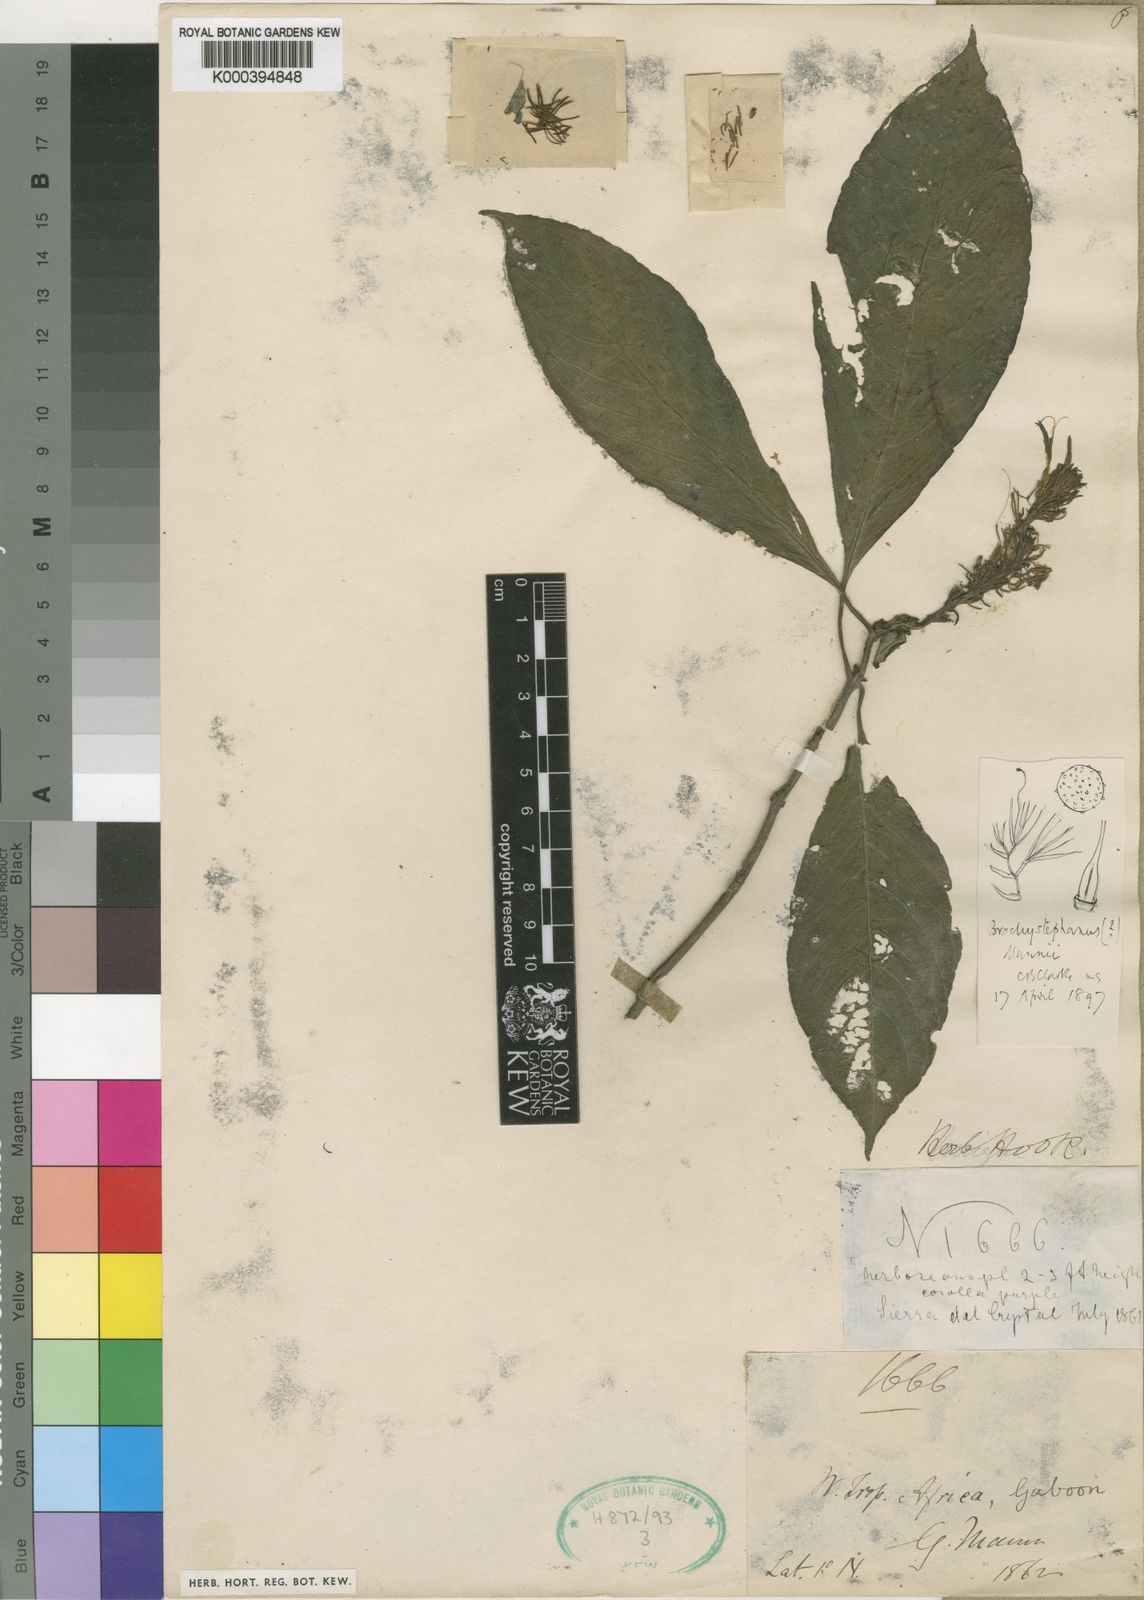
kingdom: Plantae
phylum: Tracheophyta
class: Magnoliopsida
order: Lamiales
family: Acanthaceae
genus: Brachystephanus
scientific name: Brachystephanus mannii
